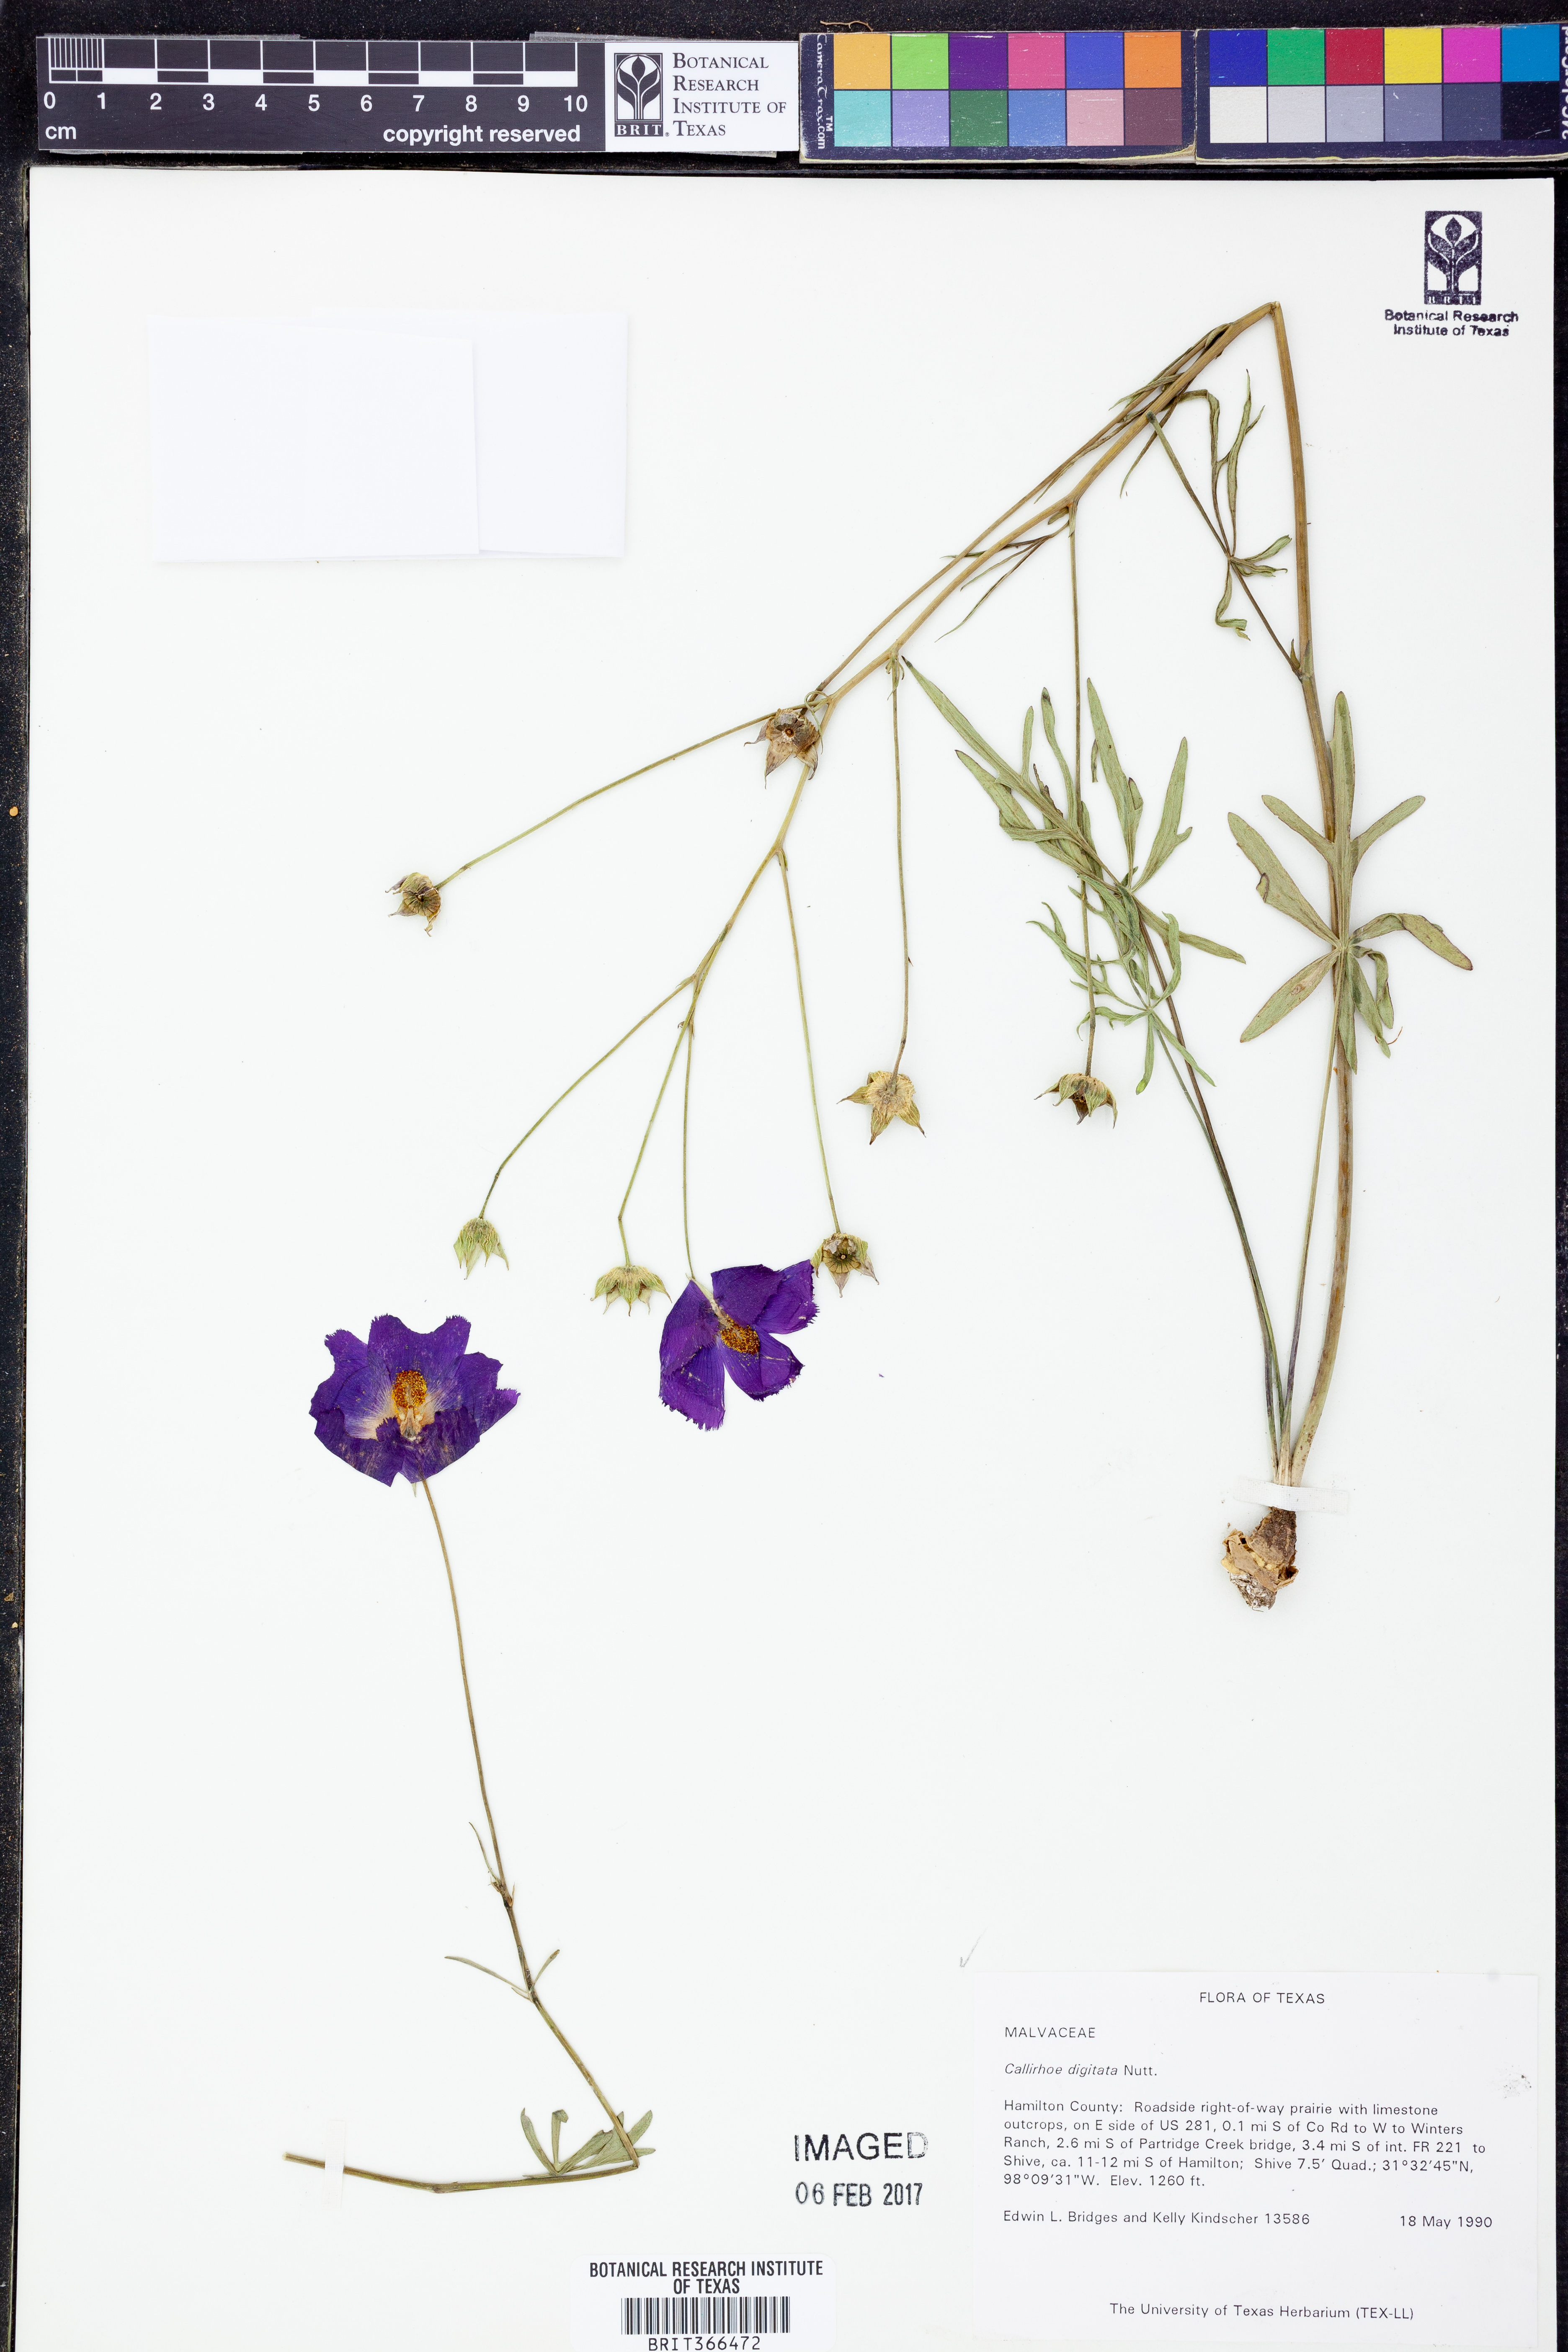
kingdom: Plantae
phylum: Tracheophyta
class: Magnoliopsida
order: Malvales
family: Malvaceae
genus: Callirhoe
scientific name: Callirhoe digitata
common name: Finger poppy-mallow
